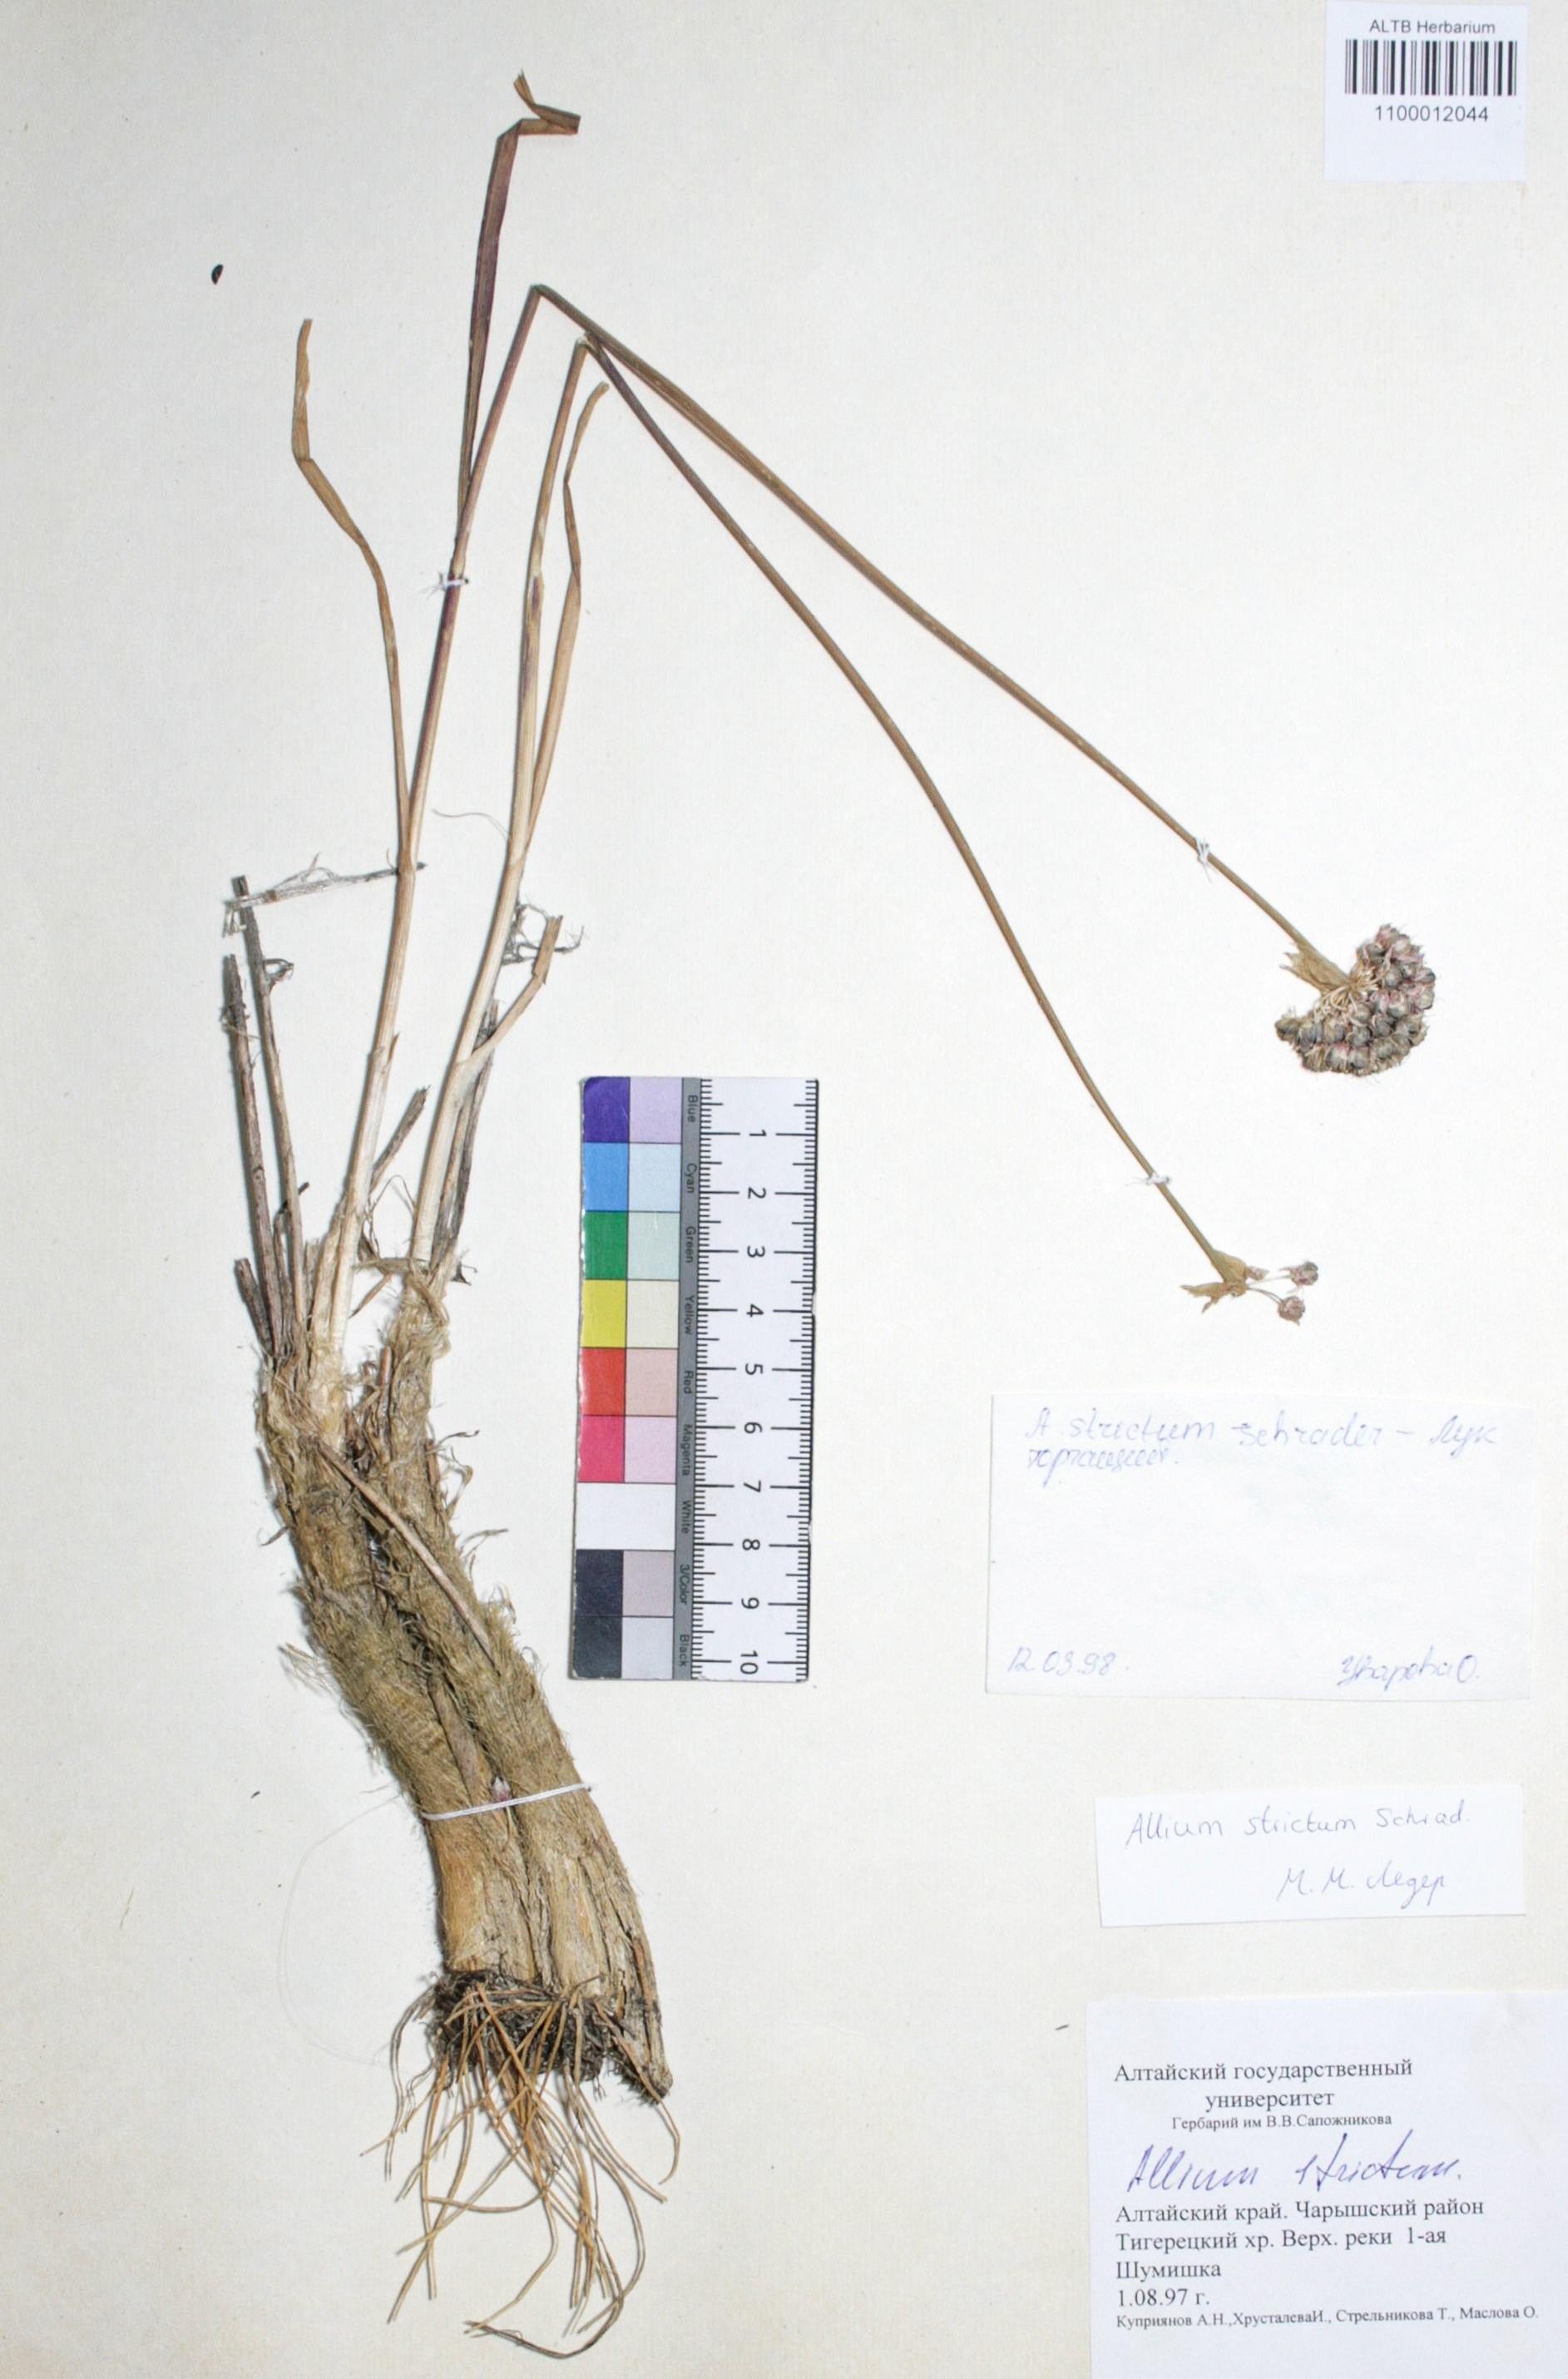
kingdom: Plantae
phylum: Tracheophyta
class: Liliopsida
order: Asparagales
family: Amaryllidaceae
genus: Allium
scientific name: Allium strictum
